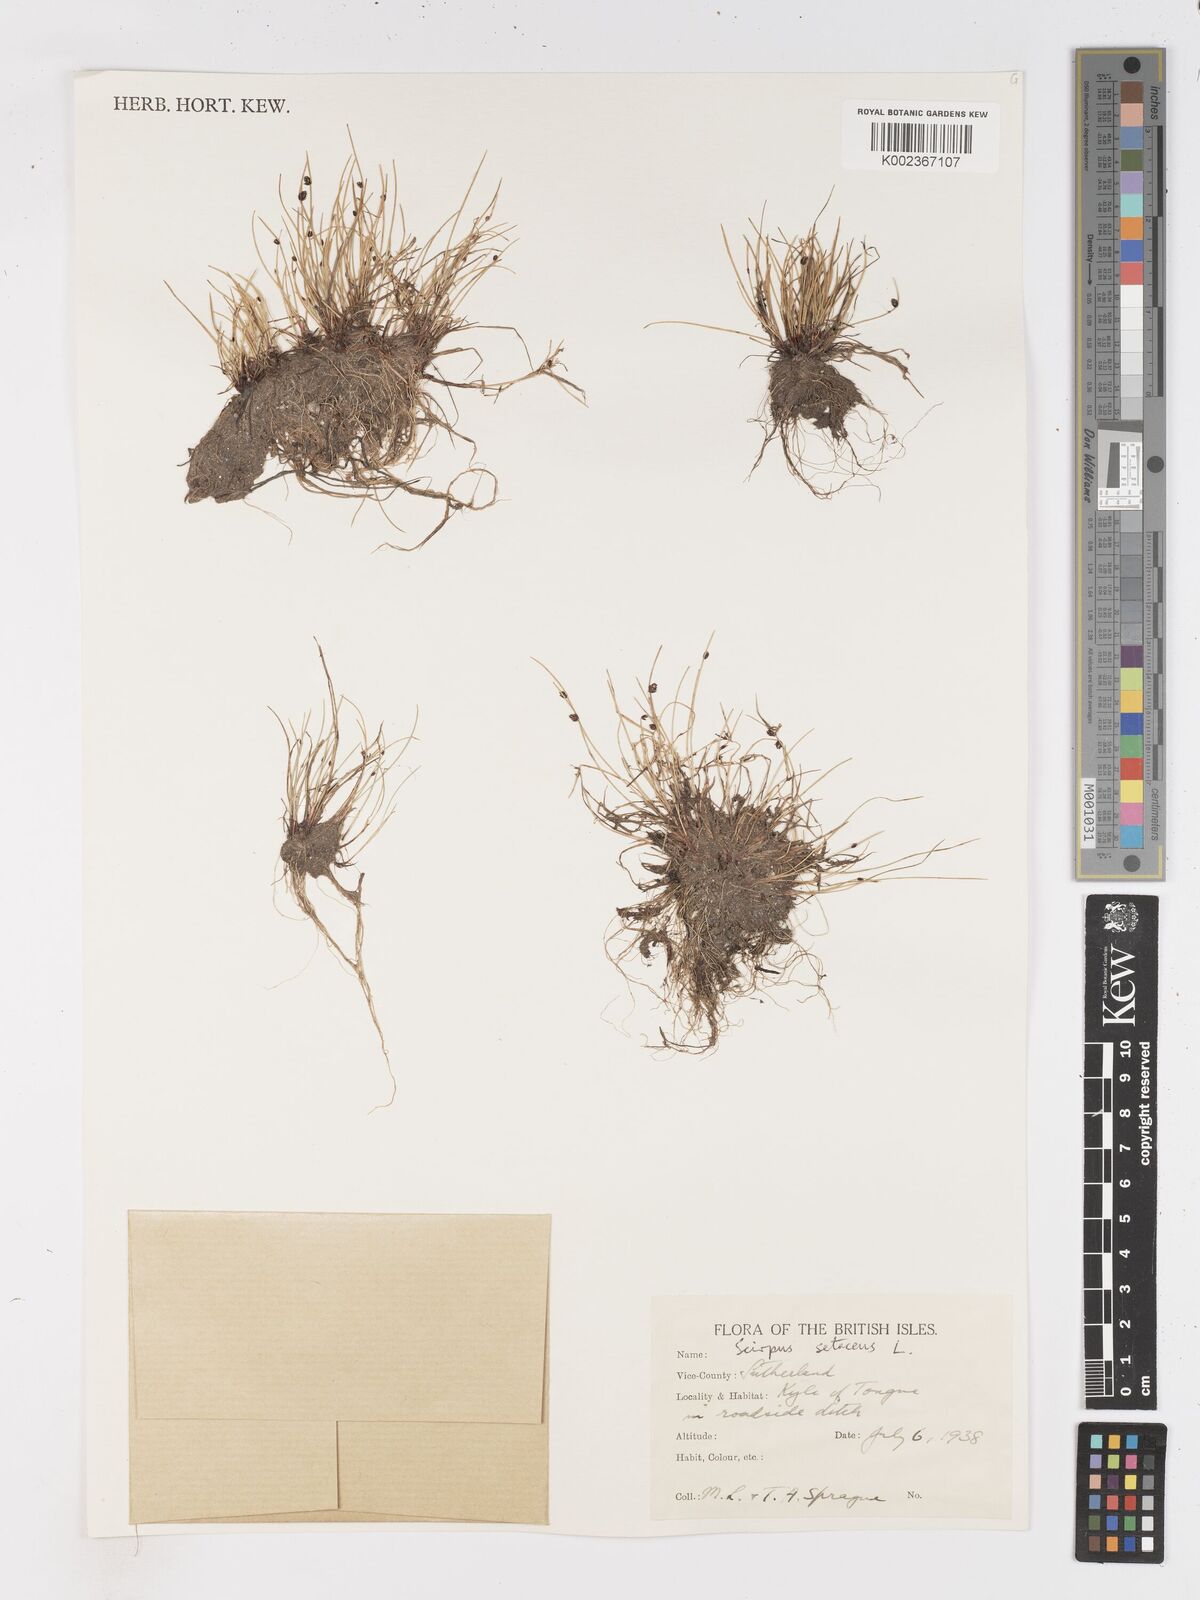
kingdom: Plantae
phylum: Tracheophyta
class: Liliopsida
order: Poales
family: Cyperaceae
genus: Isolepis
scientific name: Isolepis setacea
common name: Bristle club-rush
